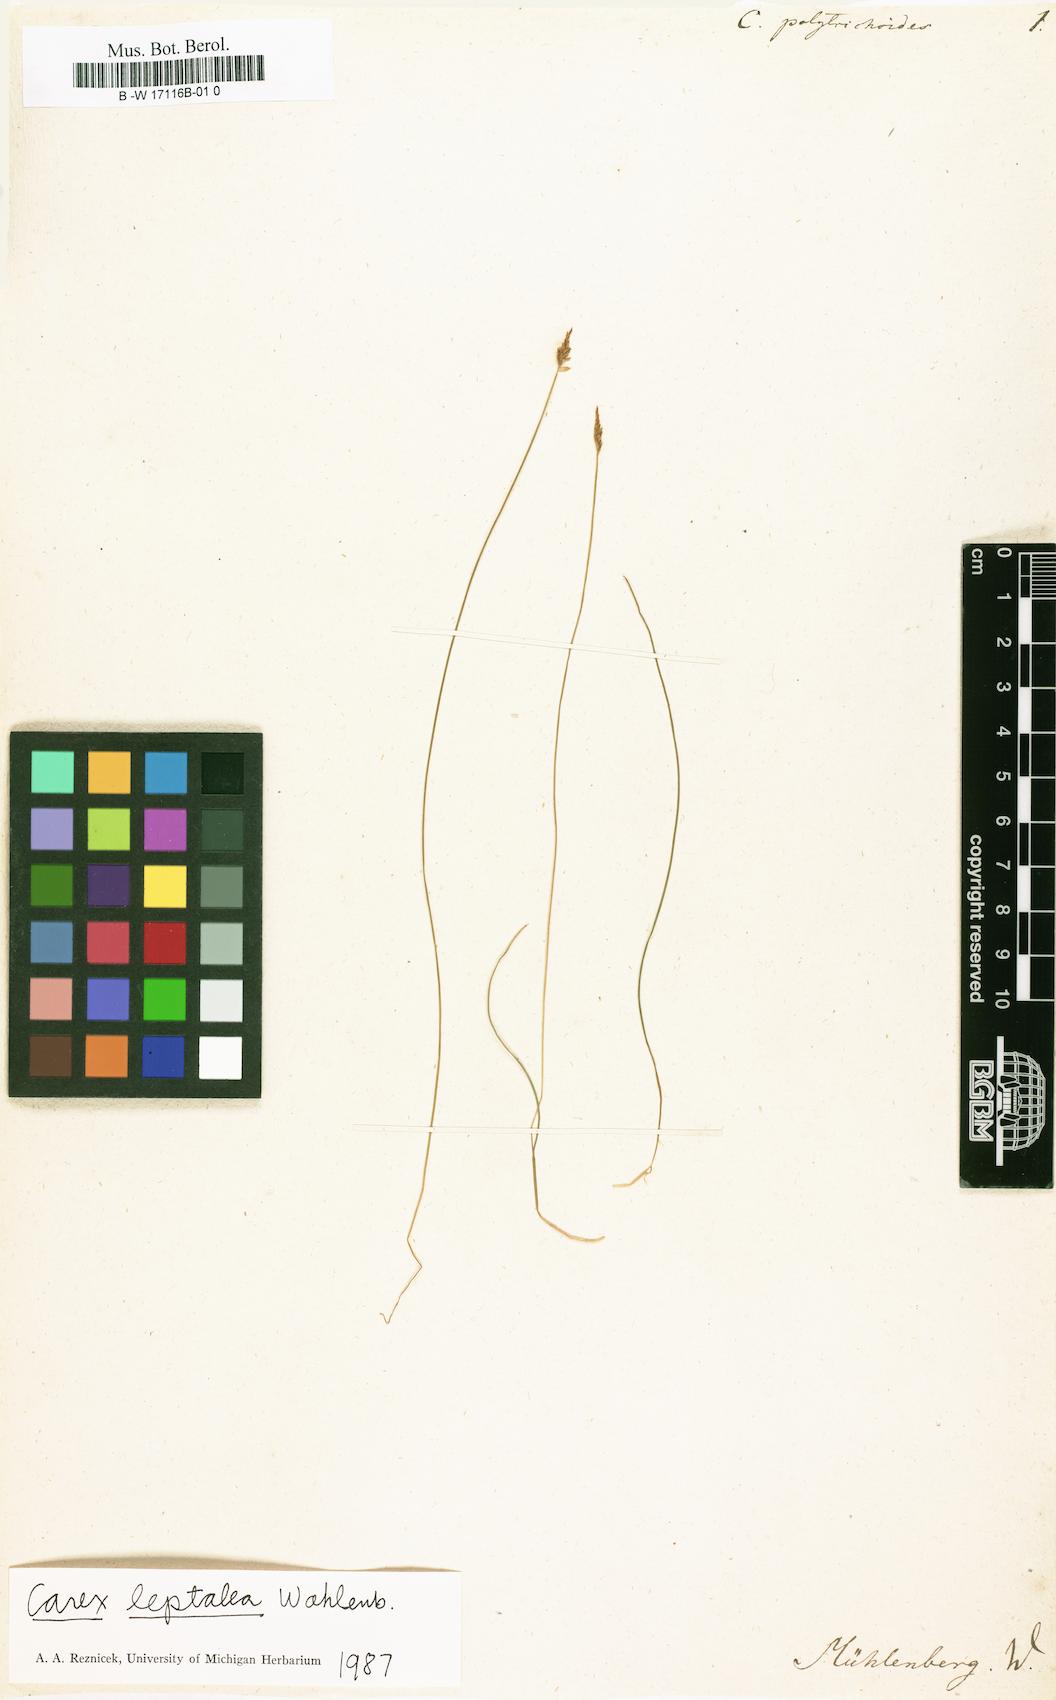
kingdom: Plantae
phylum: Tracheophyta
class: Liliopsida
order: Poales
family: Cyperaceae
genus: Carex
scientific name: Carex polytrichoides
